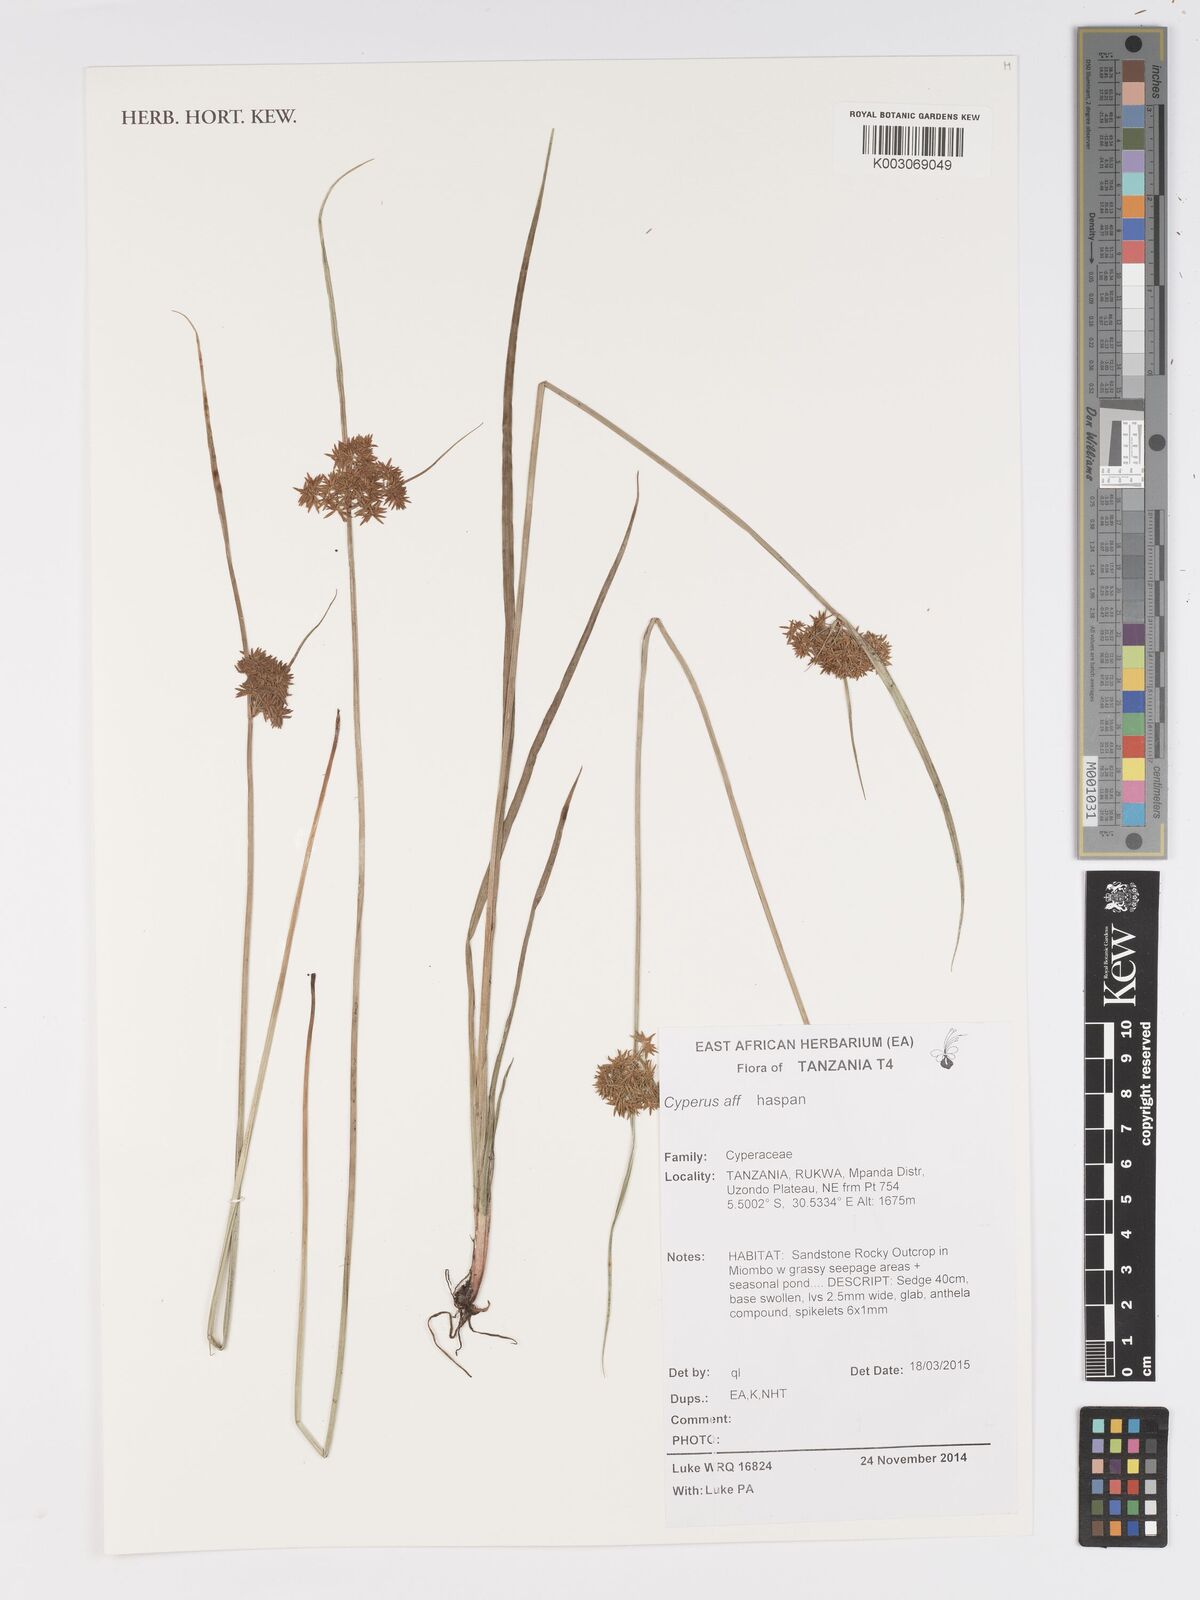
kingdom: Plantae
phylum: Tracheophyta
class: Liliopsida
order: Poales
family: Cyperaceae
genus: Cyperus
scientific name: Cyperus haspan
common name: Haspan flatsedge
